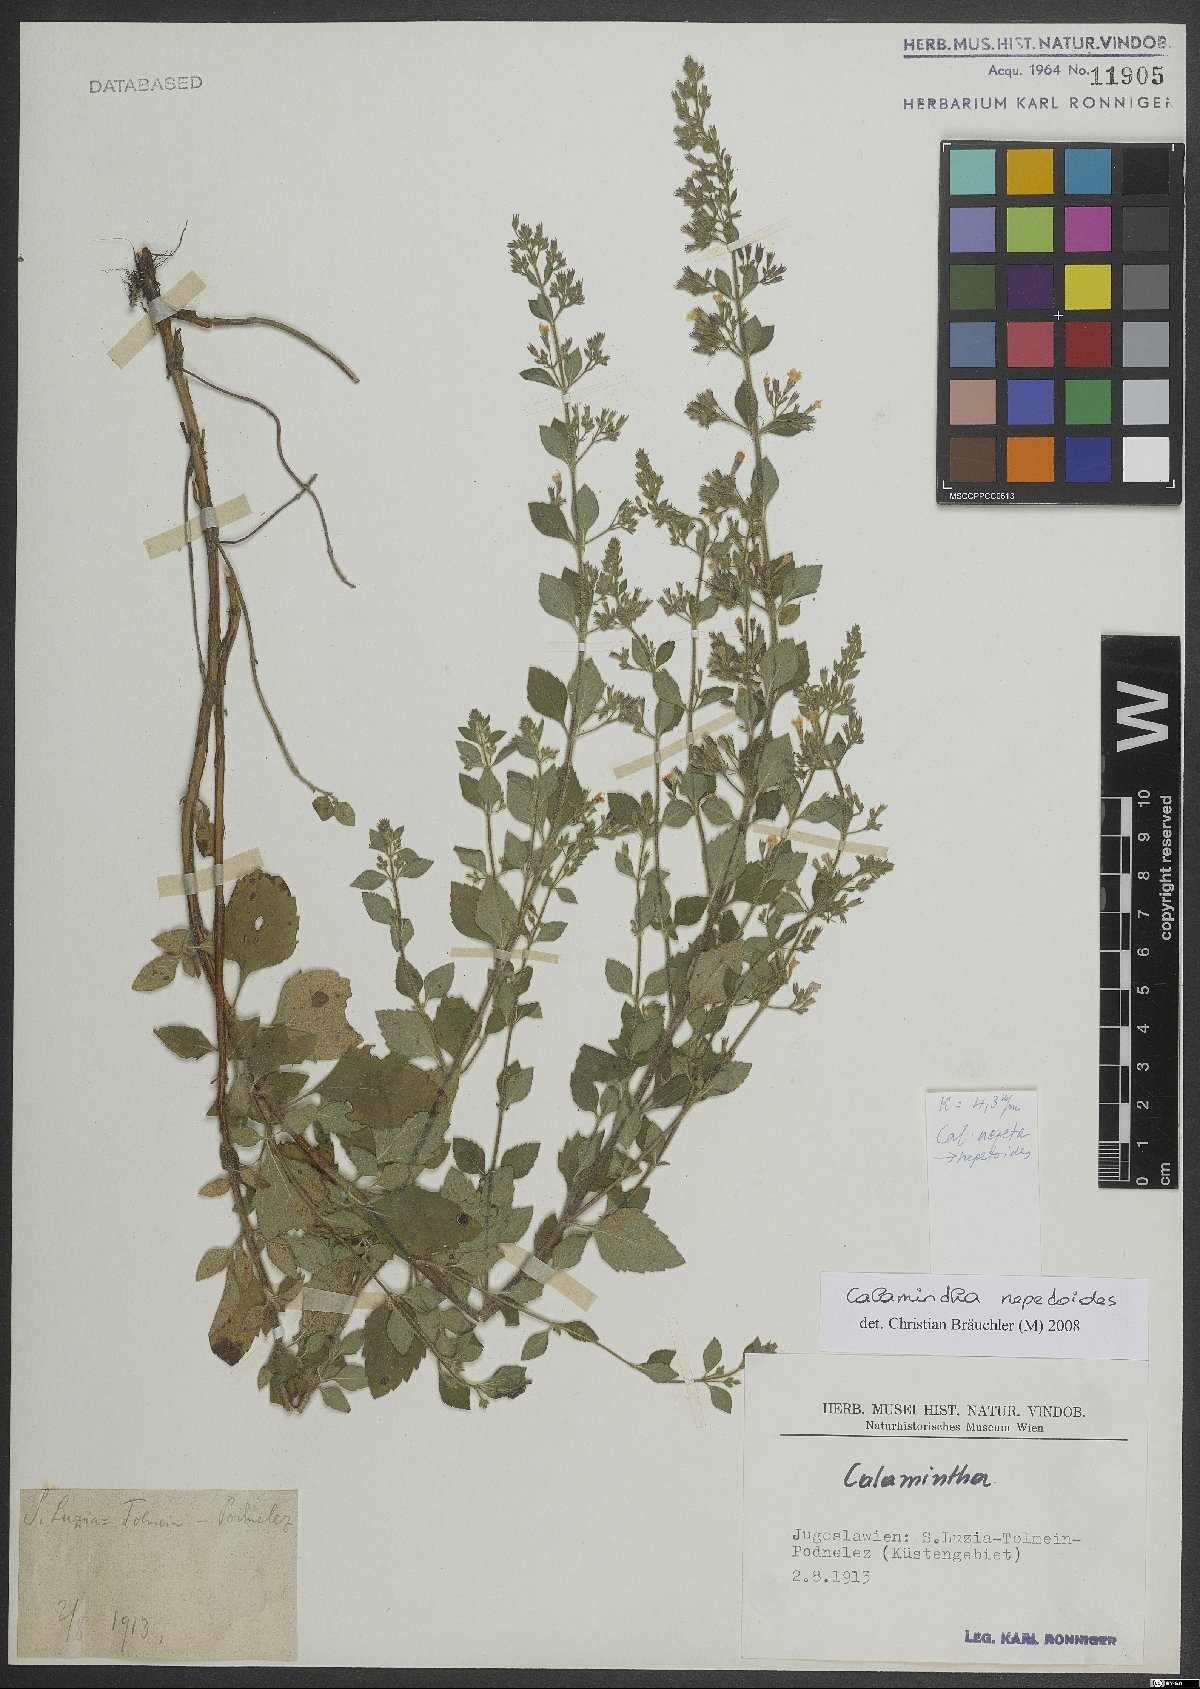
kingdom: Plantae
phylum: Tracheophyta
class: Magnoliopsida
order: Lamiales
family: Lamiaceae
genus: Clinopodium
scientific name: Clinopodium nepeta
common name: Lesser calamint
